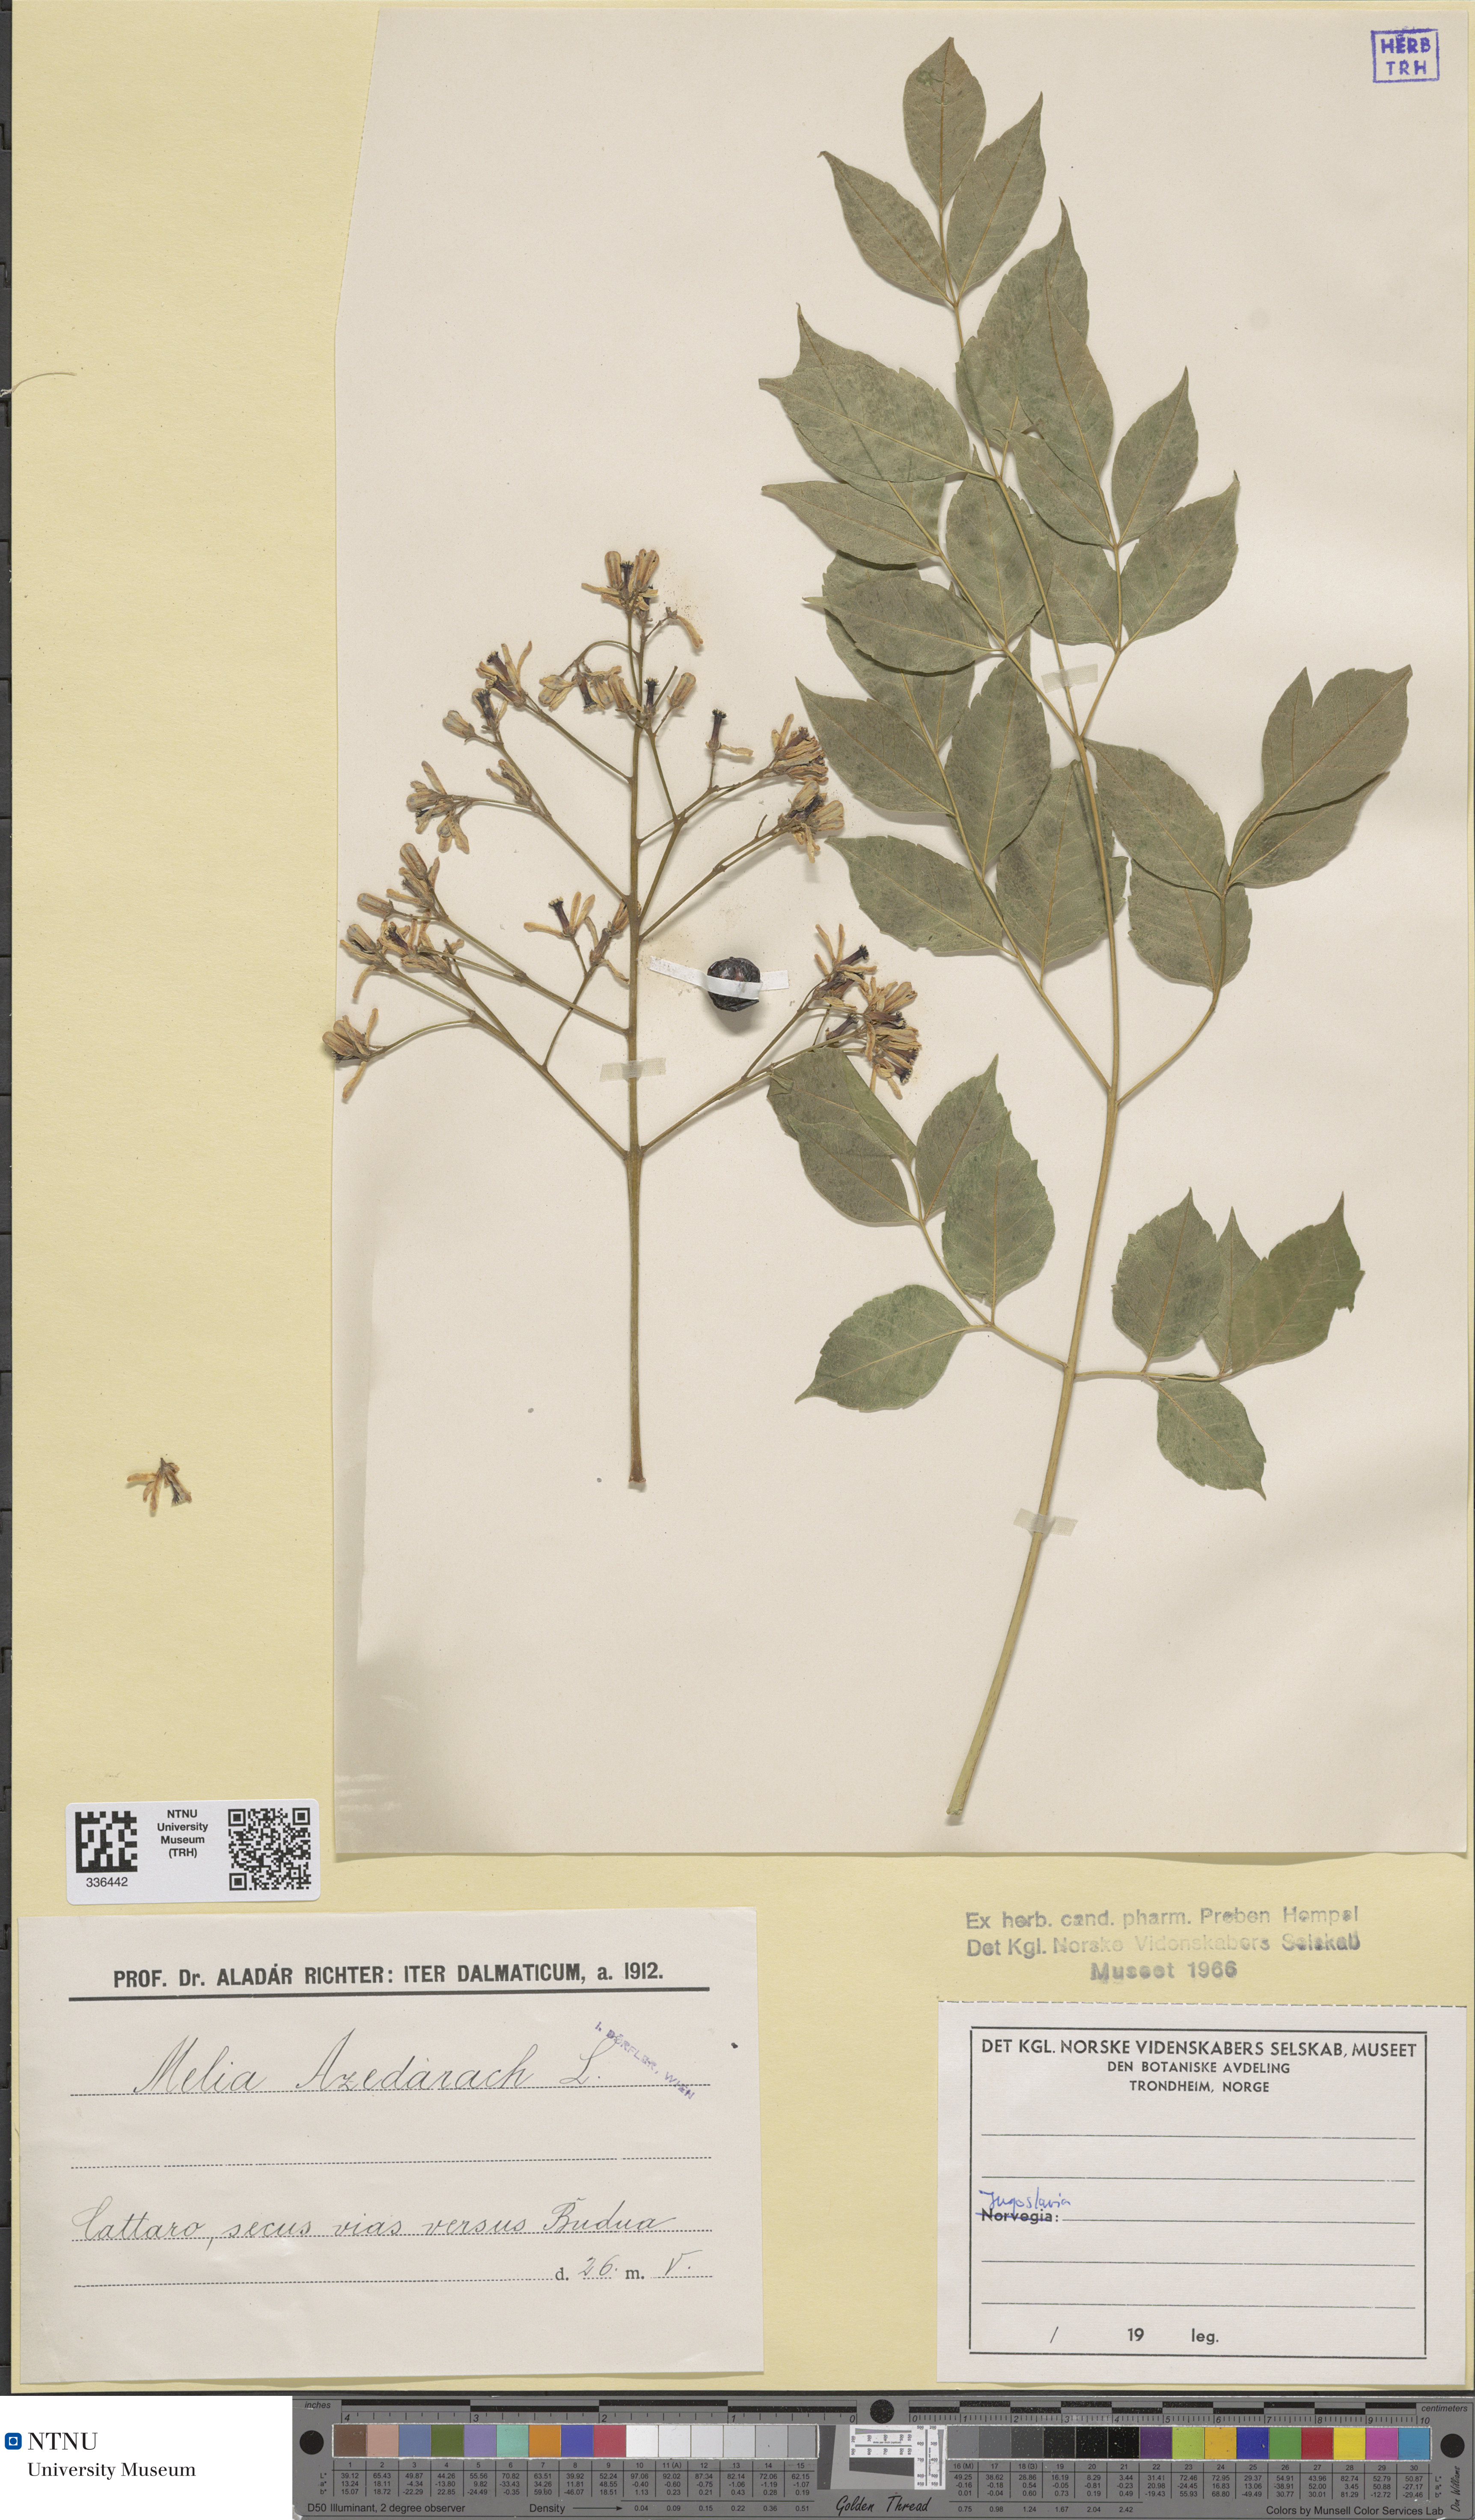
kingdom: Plantae
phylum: Tracheophyta
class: Magnoliopsida
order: Sapindales
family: Meliaceae
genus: Melia
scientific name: Melia azedarach
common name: Chinaberrytree
